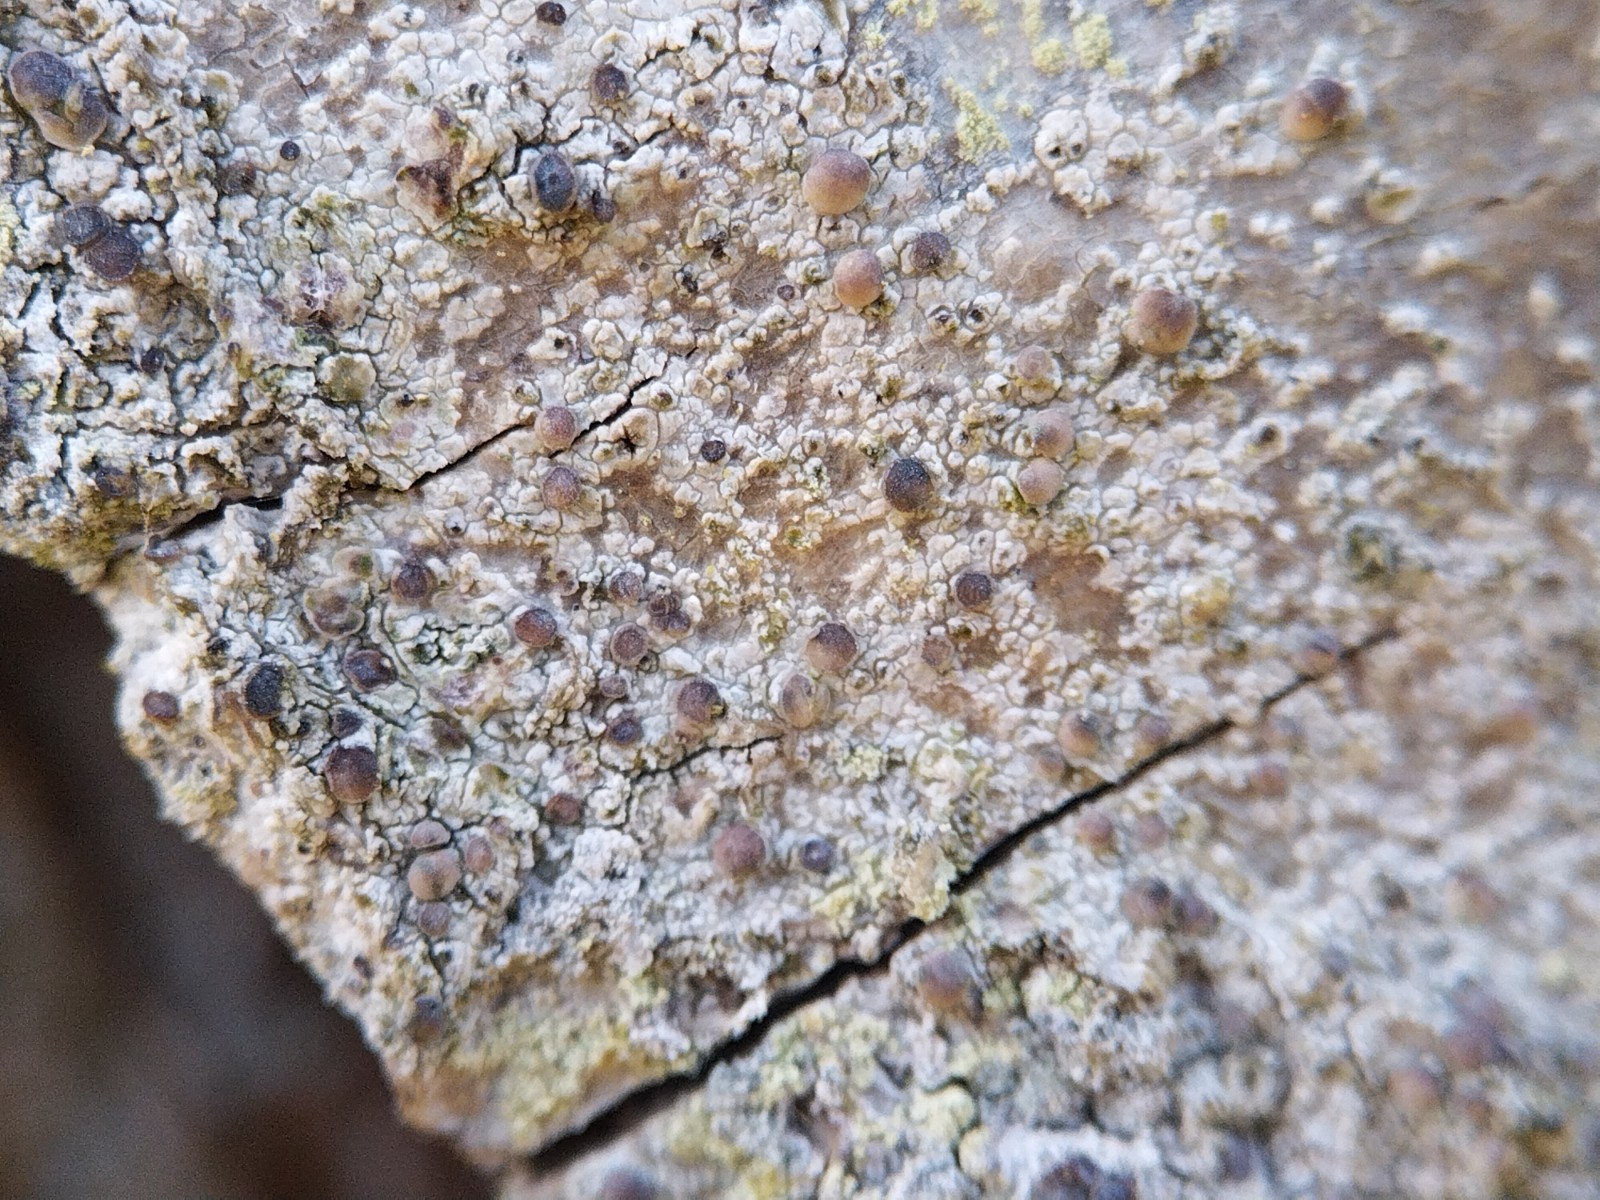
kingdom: Fungi
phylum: Ascomycota
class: Lecanoromycetes
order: Lecanorales
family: Ramalinaceae
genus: Cliostomum
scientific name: Cliostomum griffithii
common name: trefarvet tensporelav
